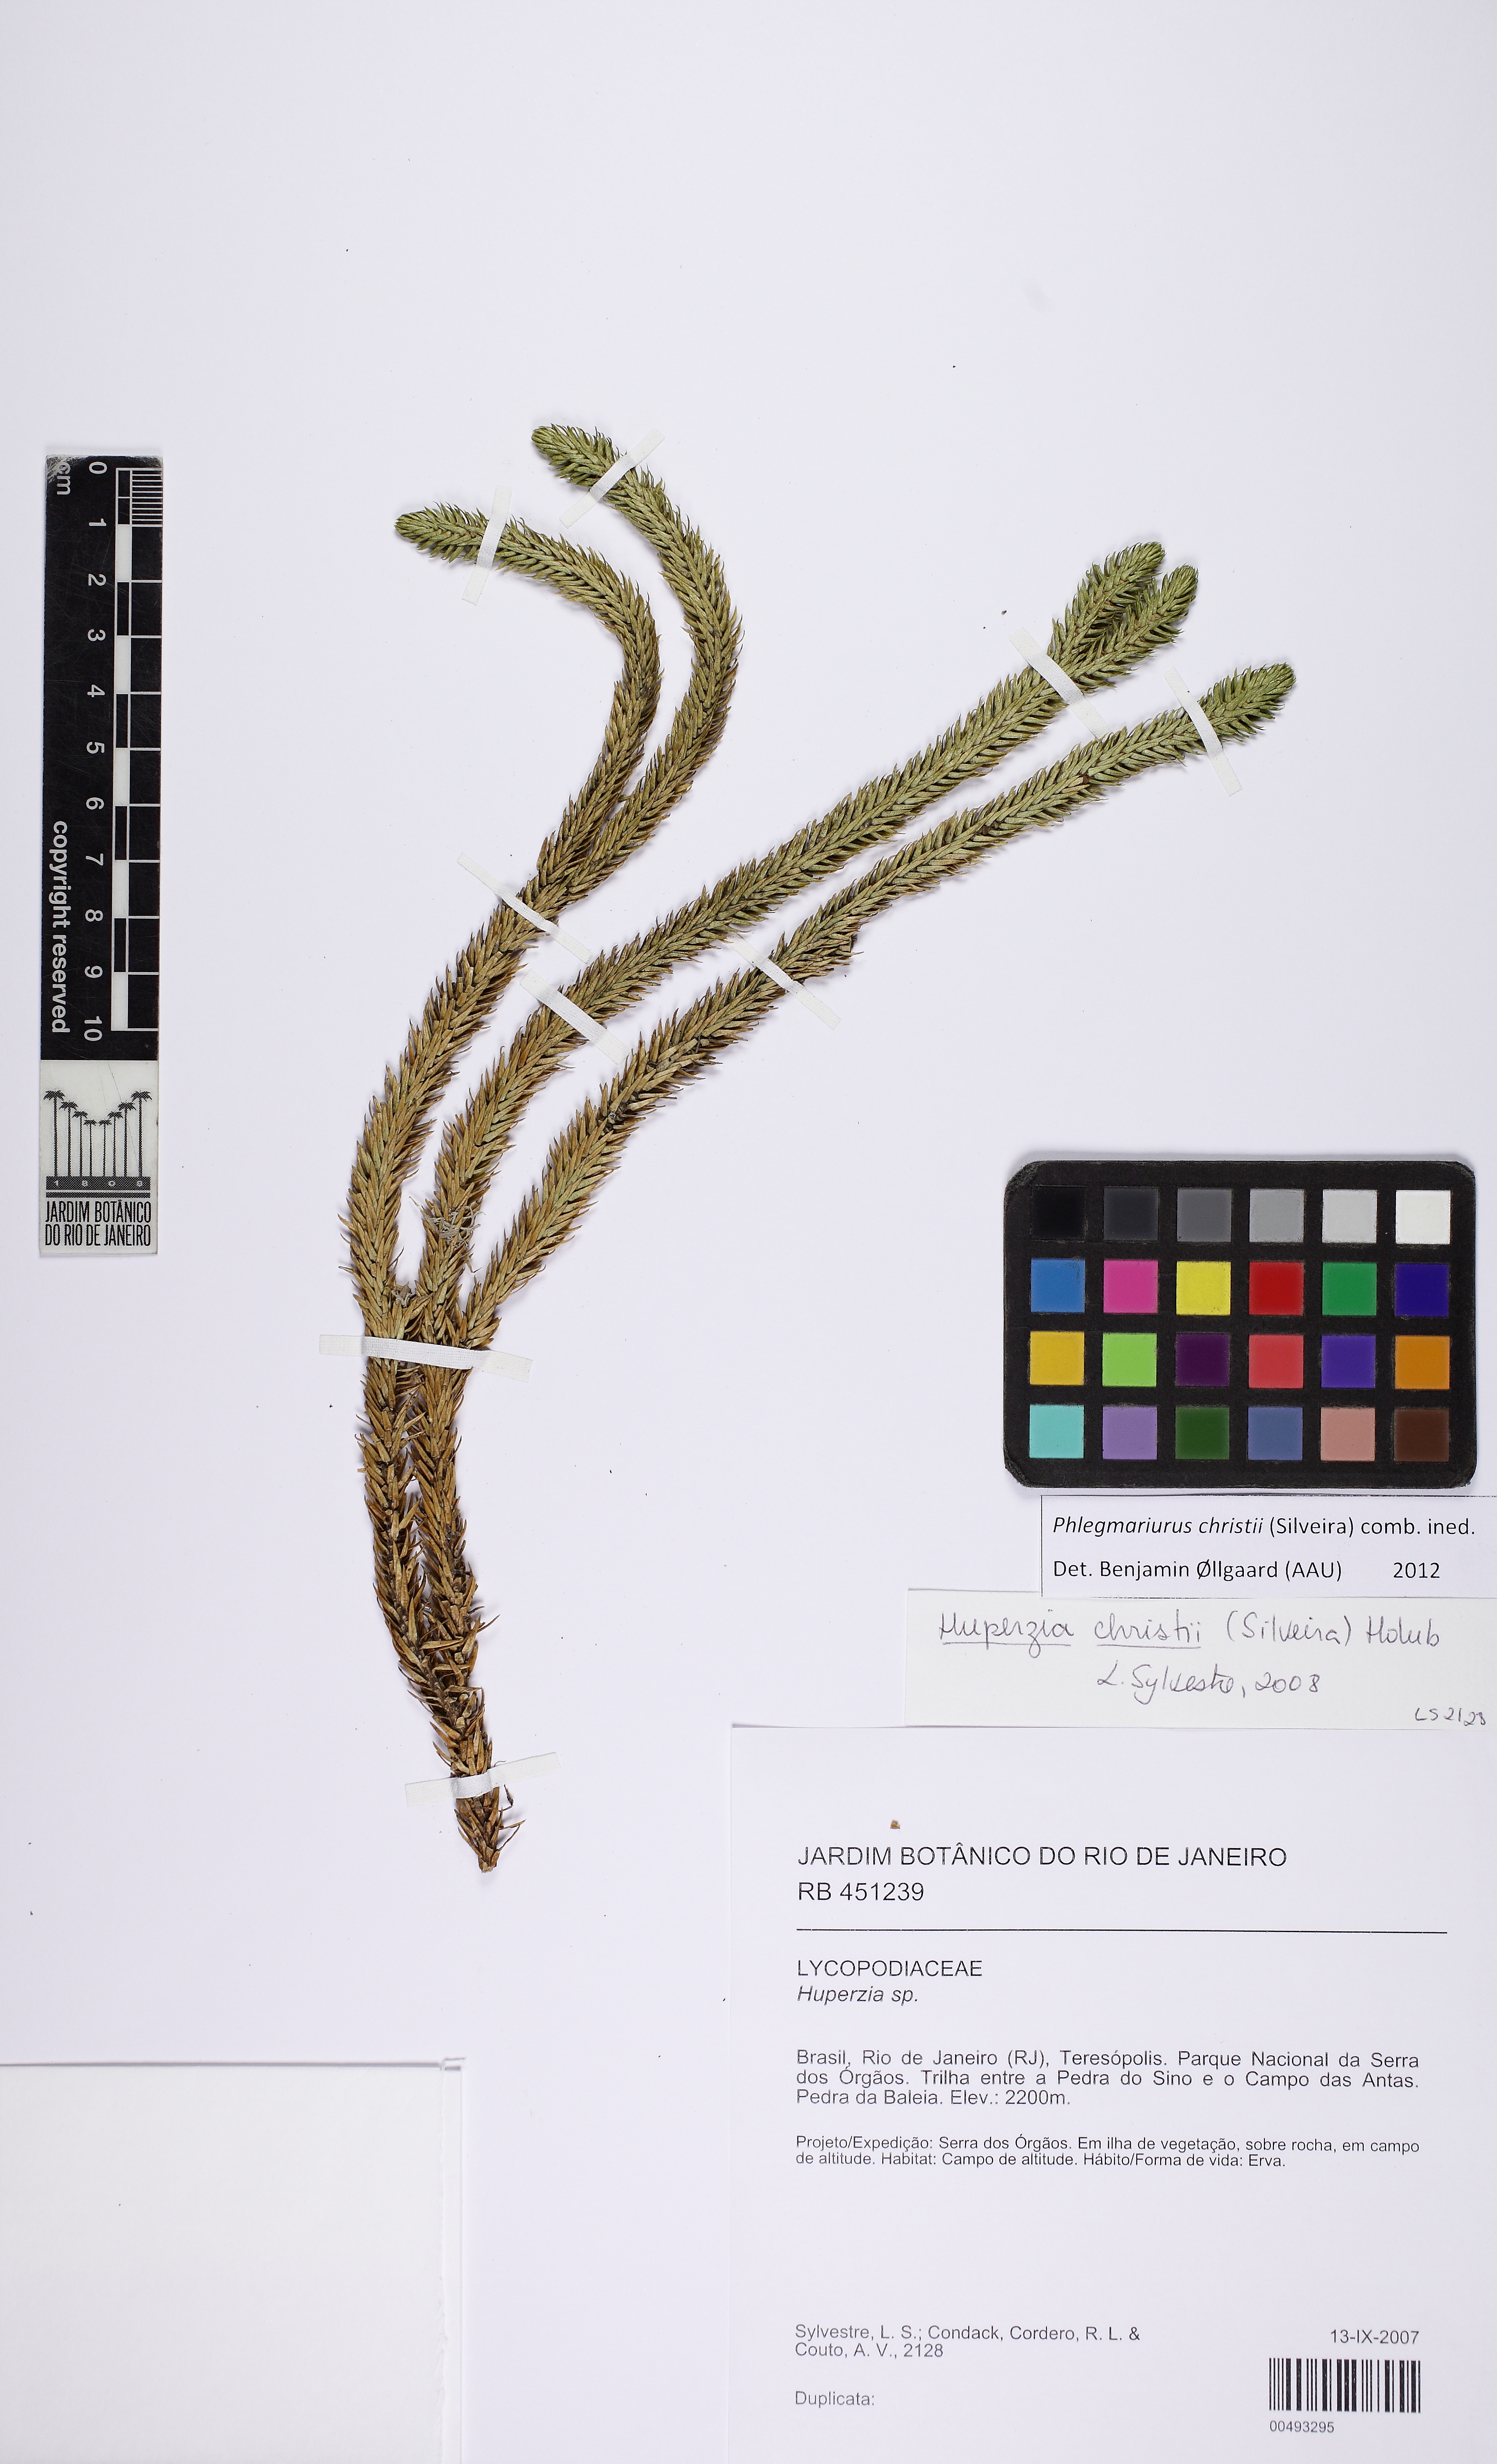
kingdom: Plantae
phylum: Tracheophyta
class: Lycopodiopsida
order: Lycopodiales
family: Lycopodiaceae
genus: Phlegmariurus
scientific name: Phlegmariurus christii
